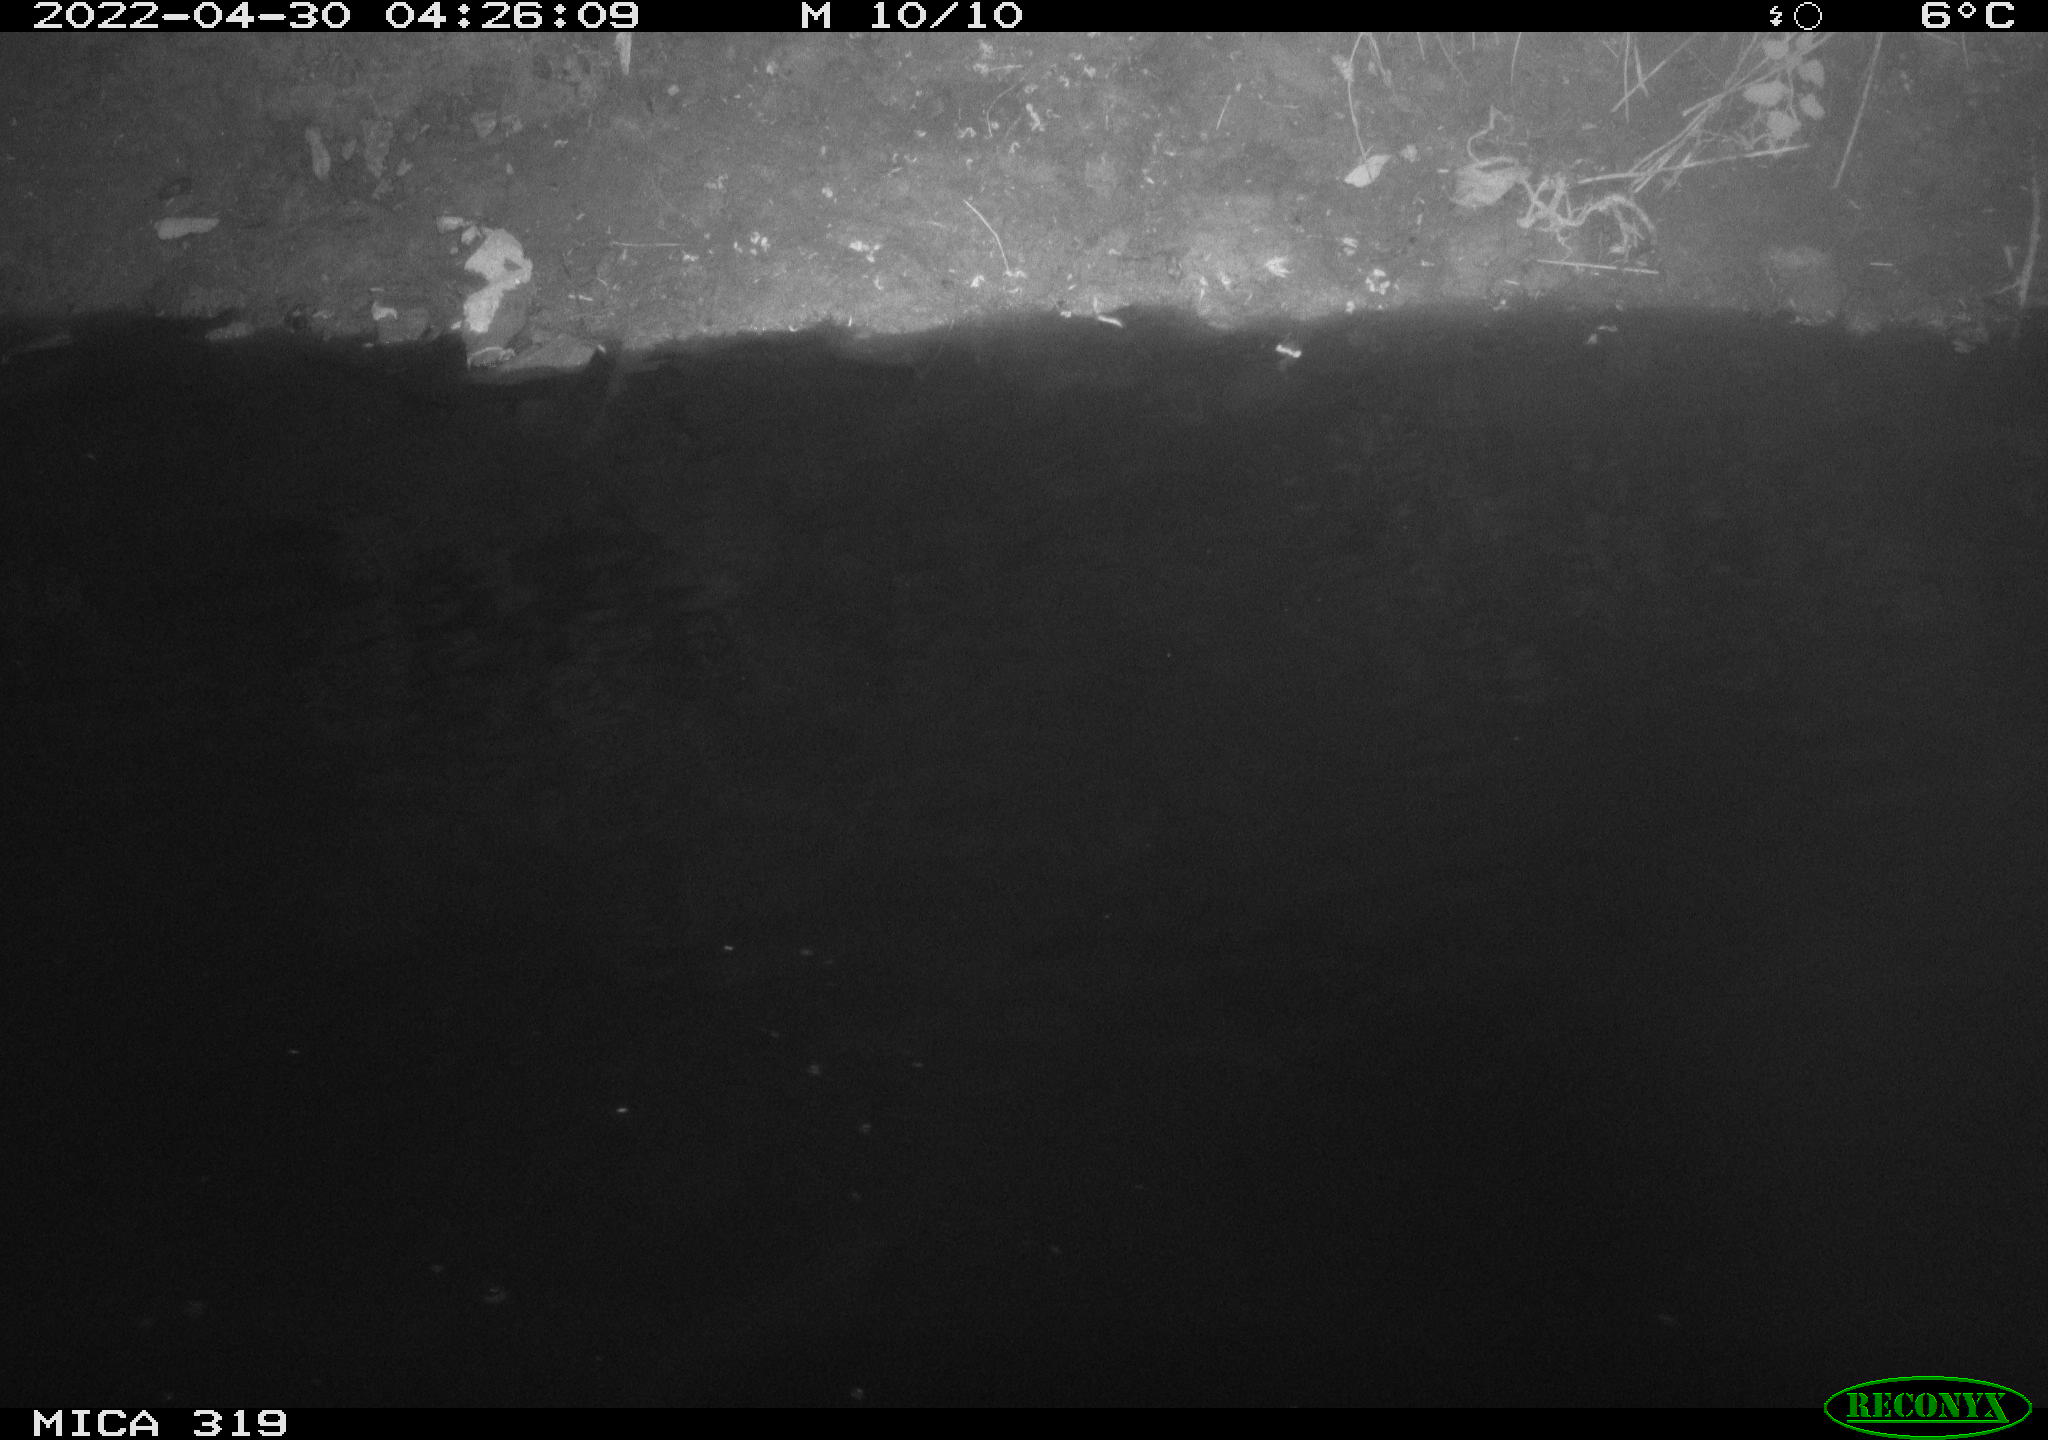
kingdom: Animalia
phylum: Chordata
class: Aves
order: Anseriformes
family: Anatidae
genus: Anas
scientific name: Anas platyrhynchos
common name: Mallard
